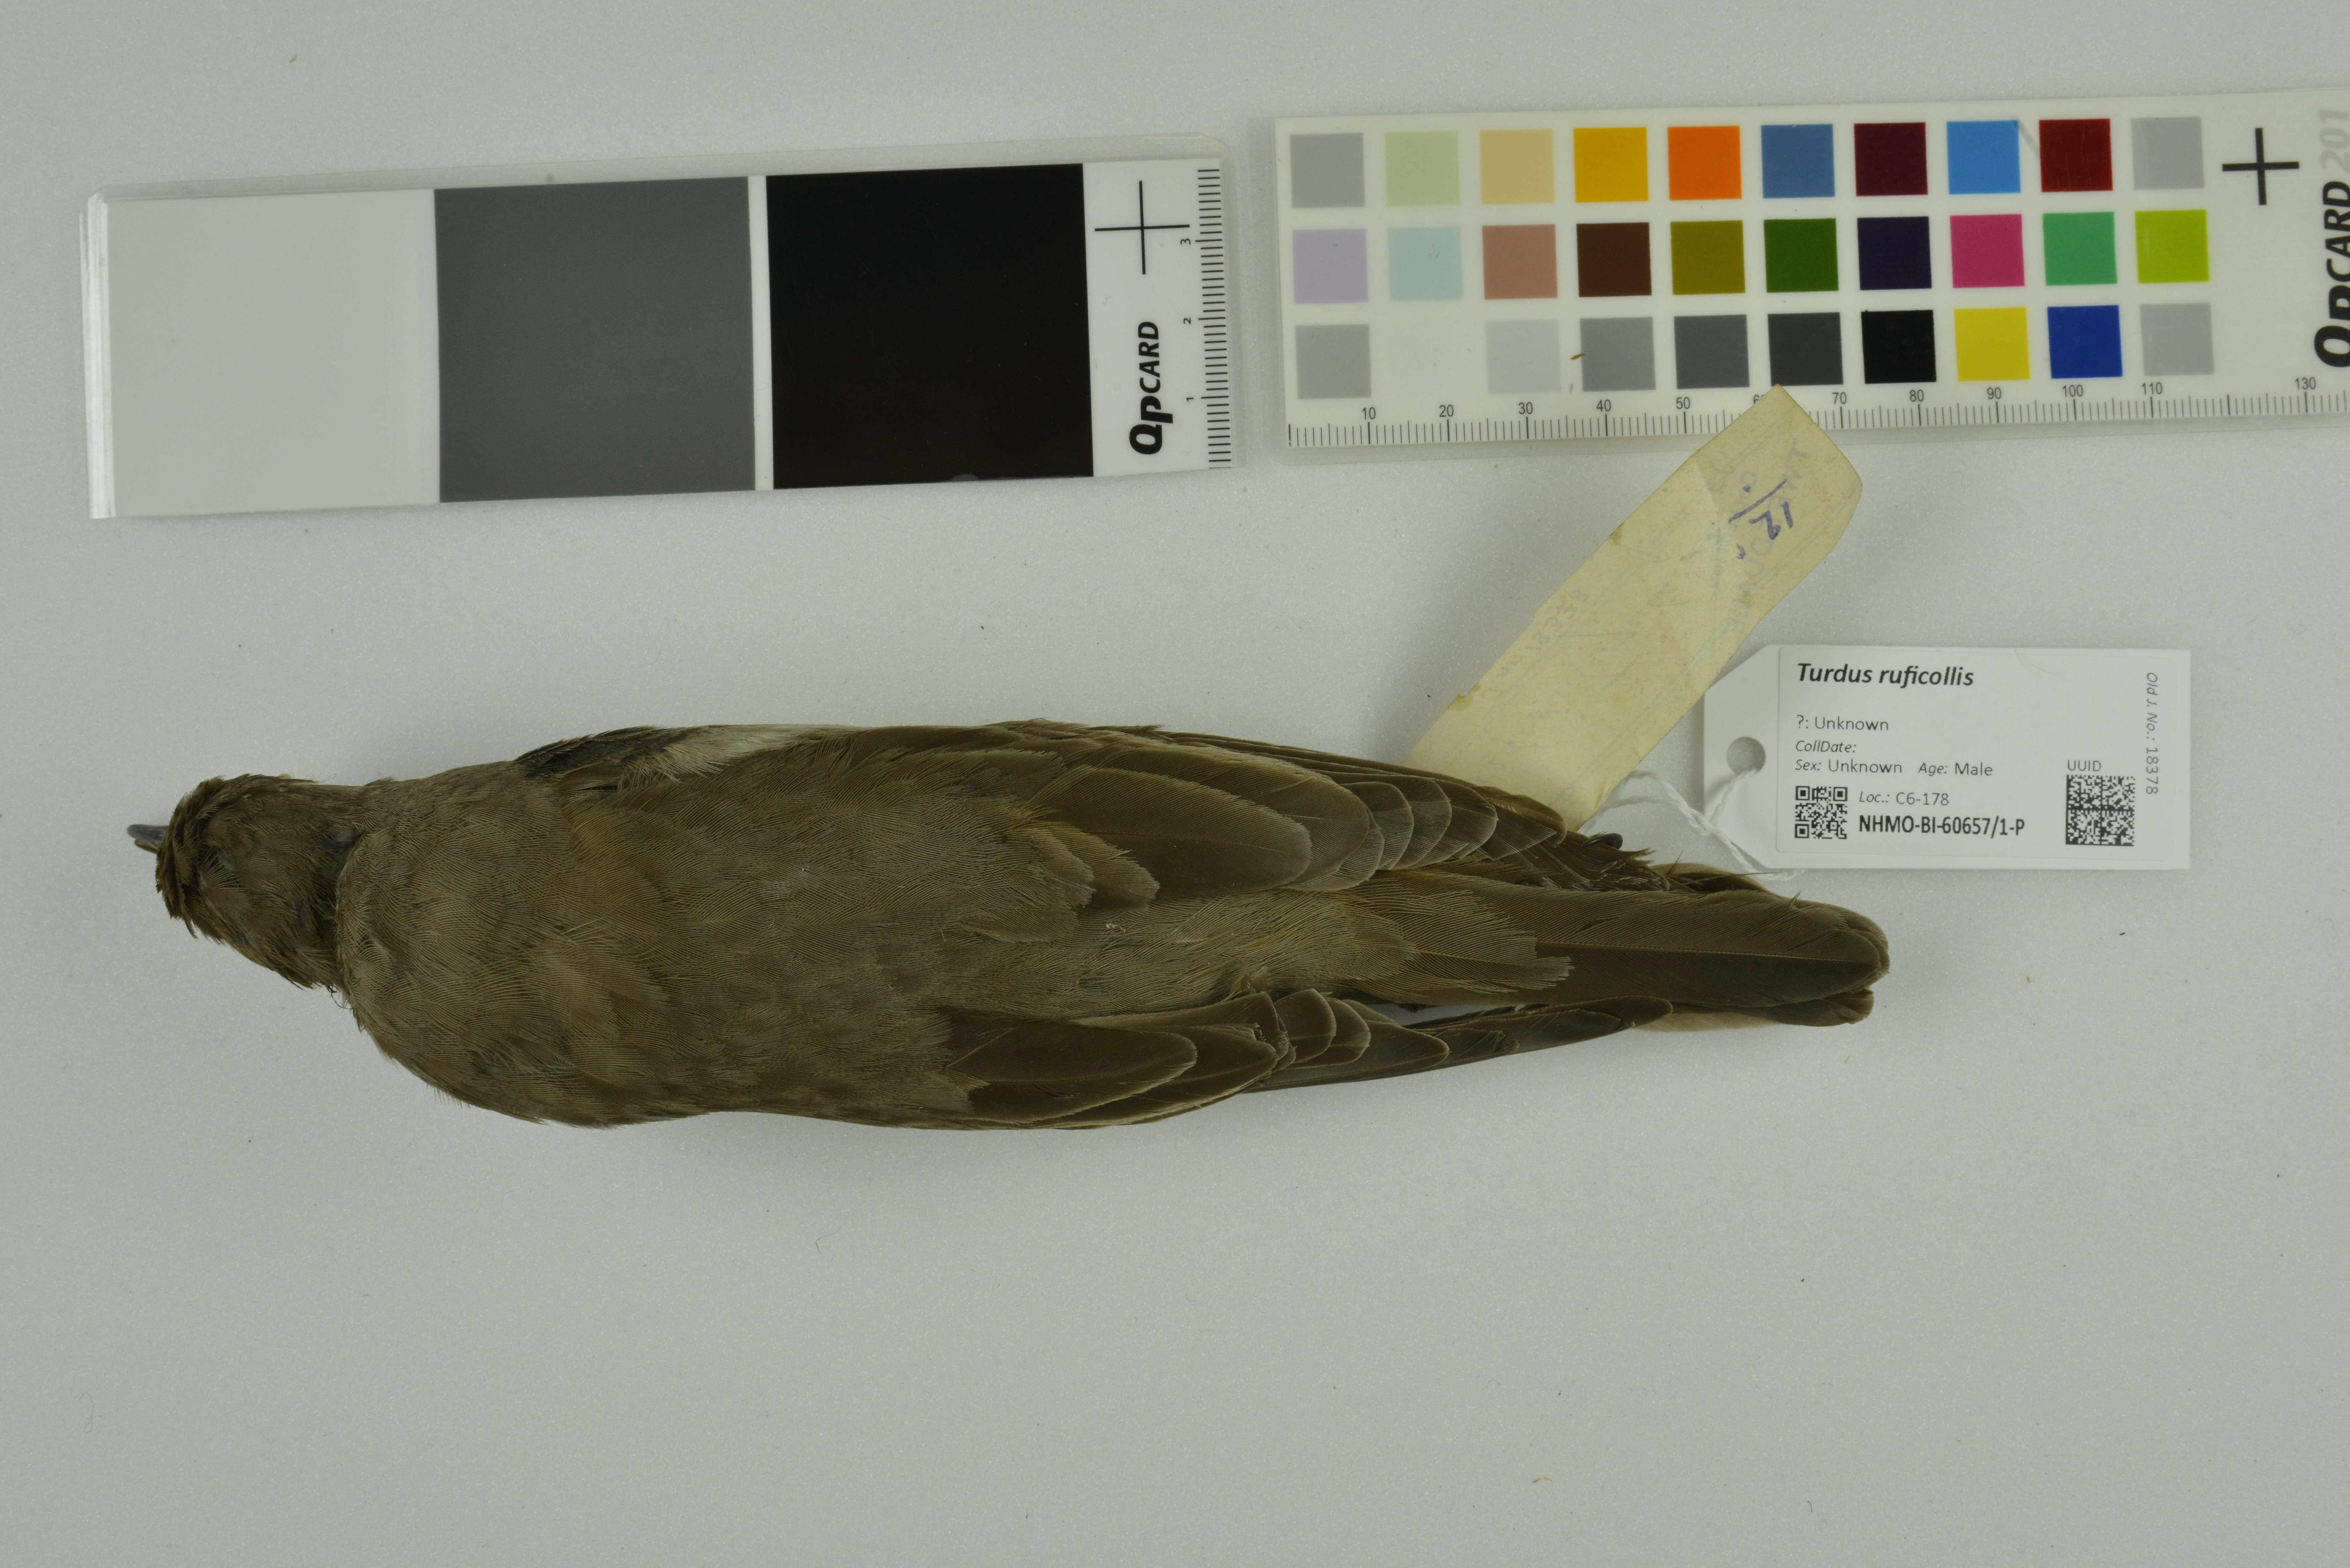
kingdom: Animalia
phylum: Chordata
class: Aves
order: Passeriformes
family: Turdidae
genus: Turdus
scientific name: Turdus ruficollis
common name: Red-throated thrush
